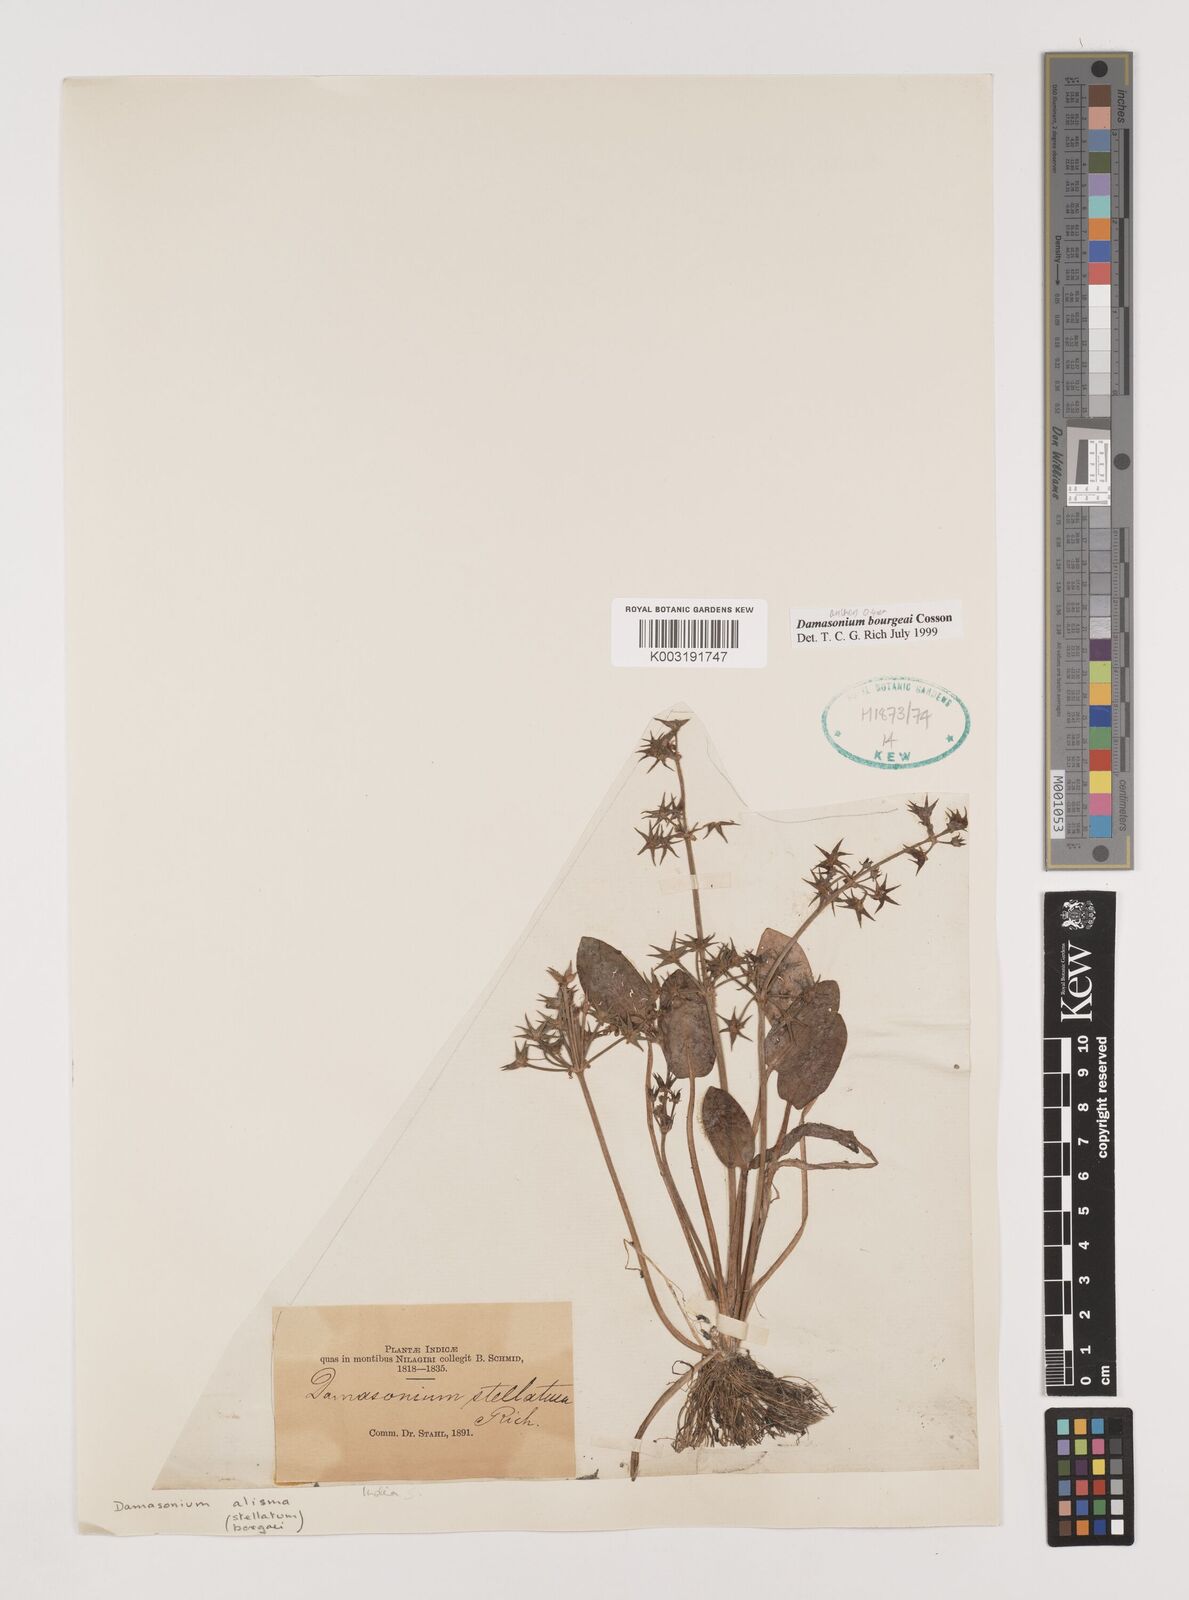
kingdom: Plantae
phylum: Tracheophyta
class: Liliopsida
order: Alismatales
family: Alismataceae
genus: Damasonium
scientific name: Damasonium bourgaei
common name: Starfruit
